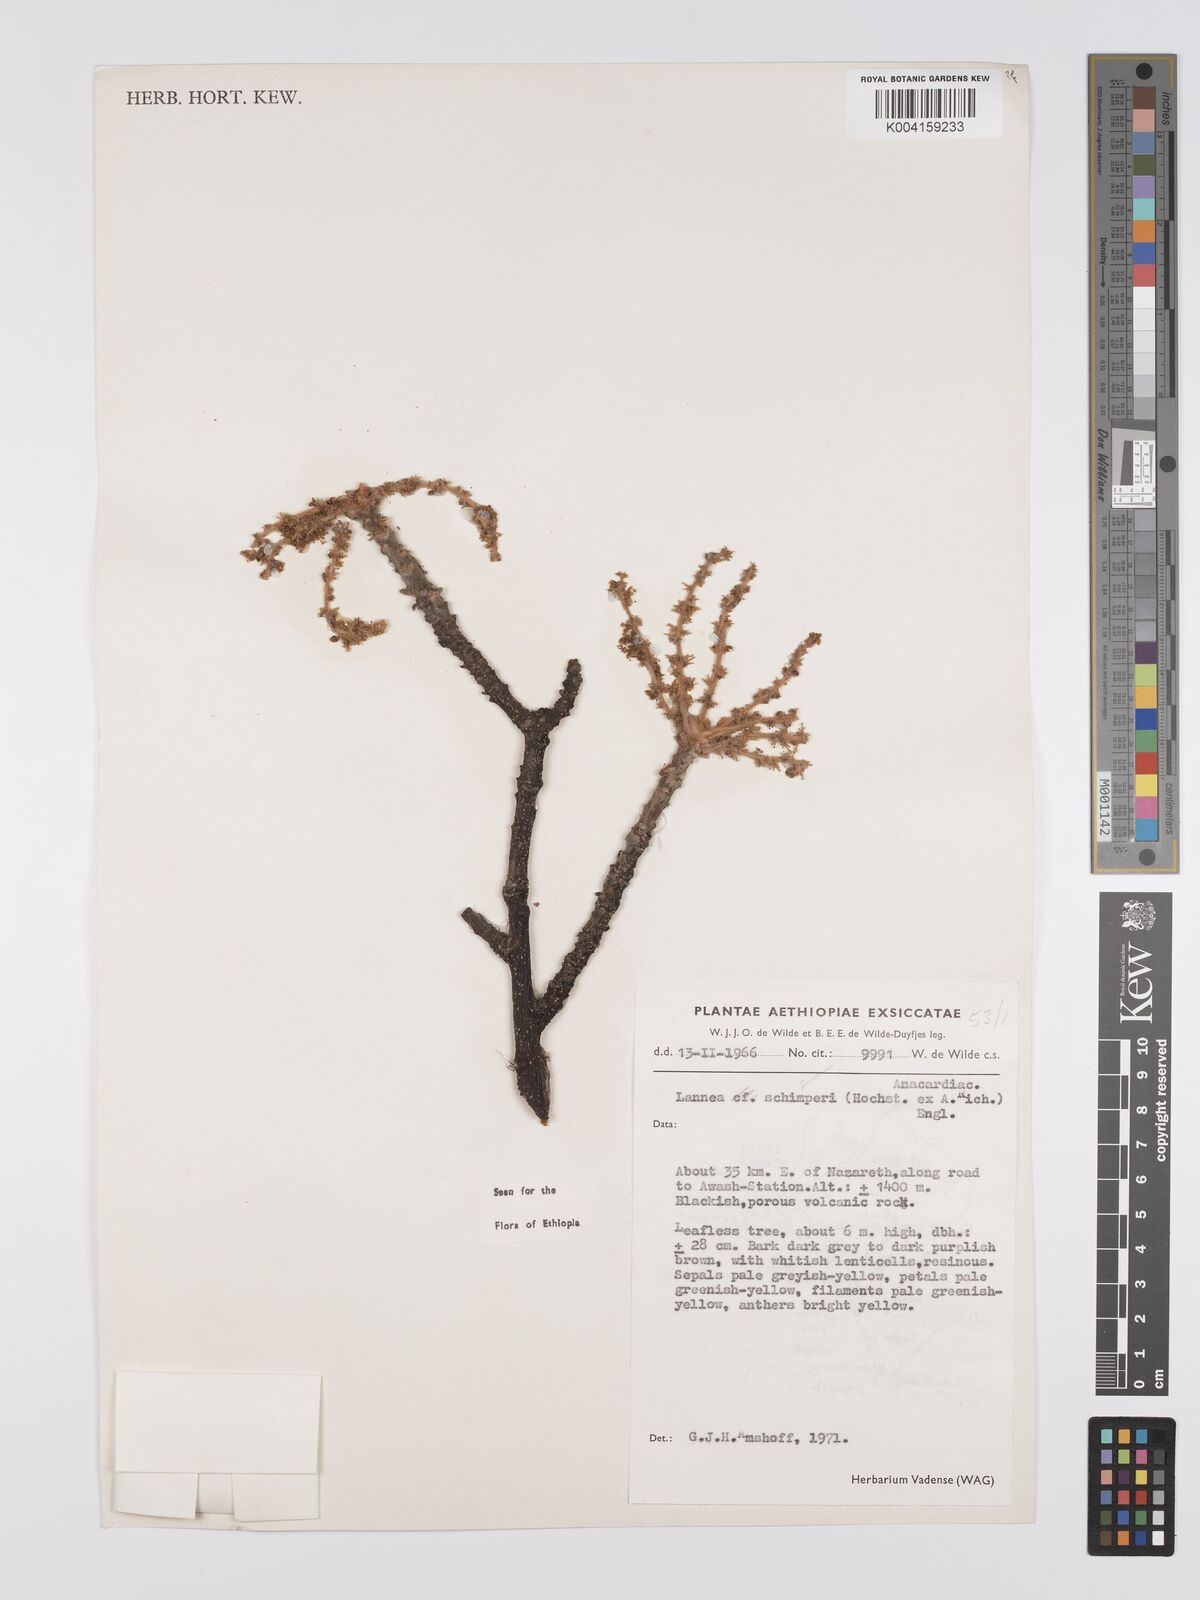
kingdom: Plantae
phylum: Tracheophyta
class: Magnoliopsida
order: Sapindales
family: Anacardiaceae
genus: Lannea
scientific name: Lannea schimperi
